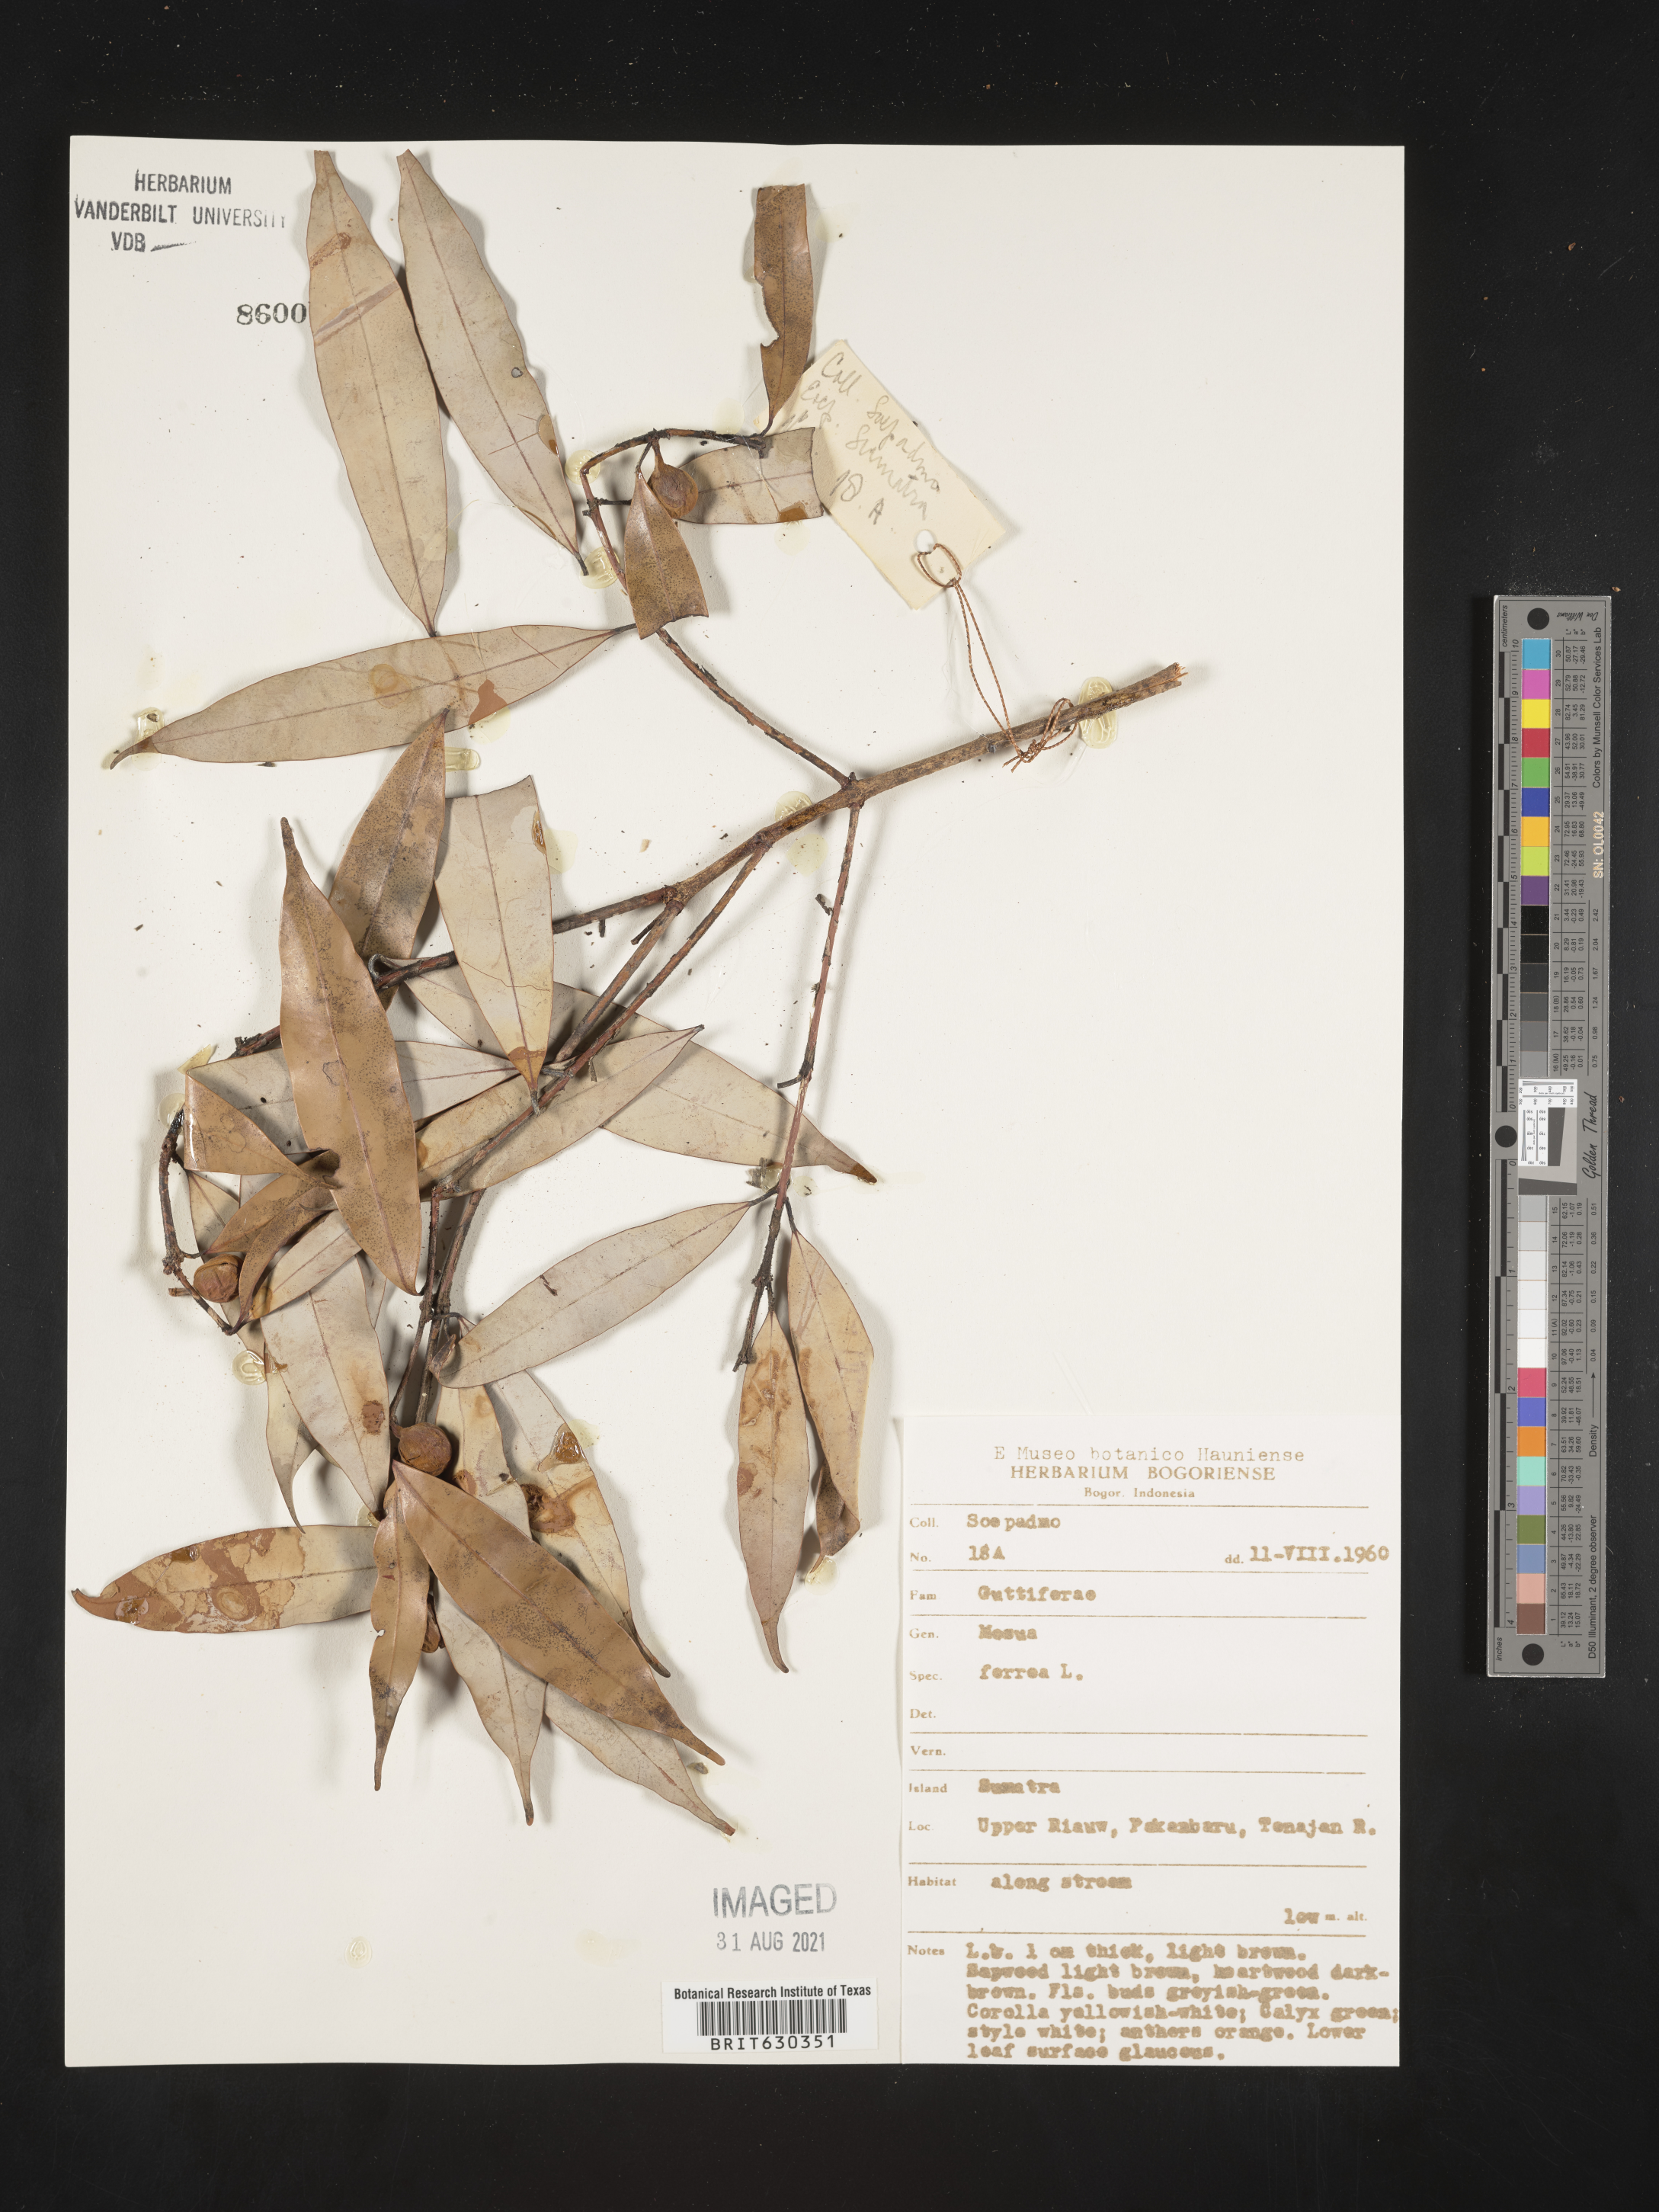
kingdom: Plantae
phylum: Tracheophyta
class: Magnoliopsida
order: Malpighiales
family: Calophyllaceae
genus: Mesua
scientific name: Mesua ferrea
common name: Mesua
